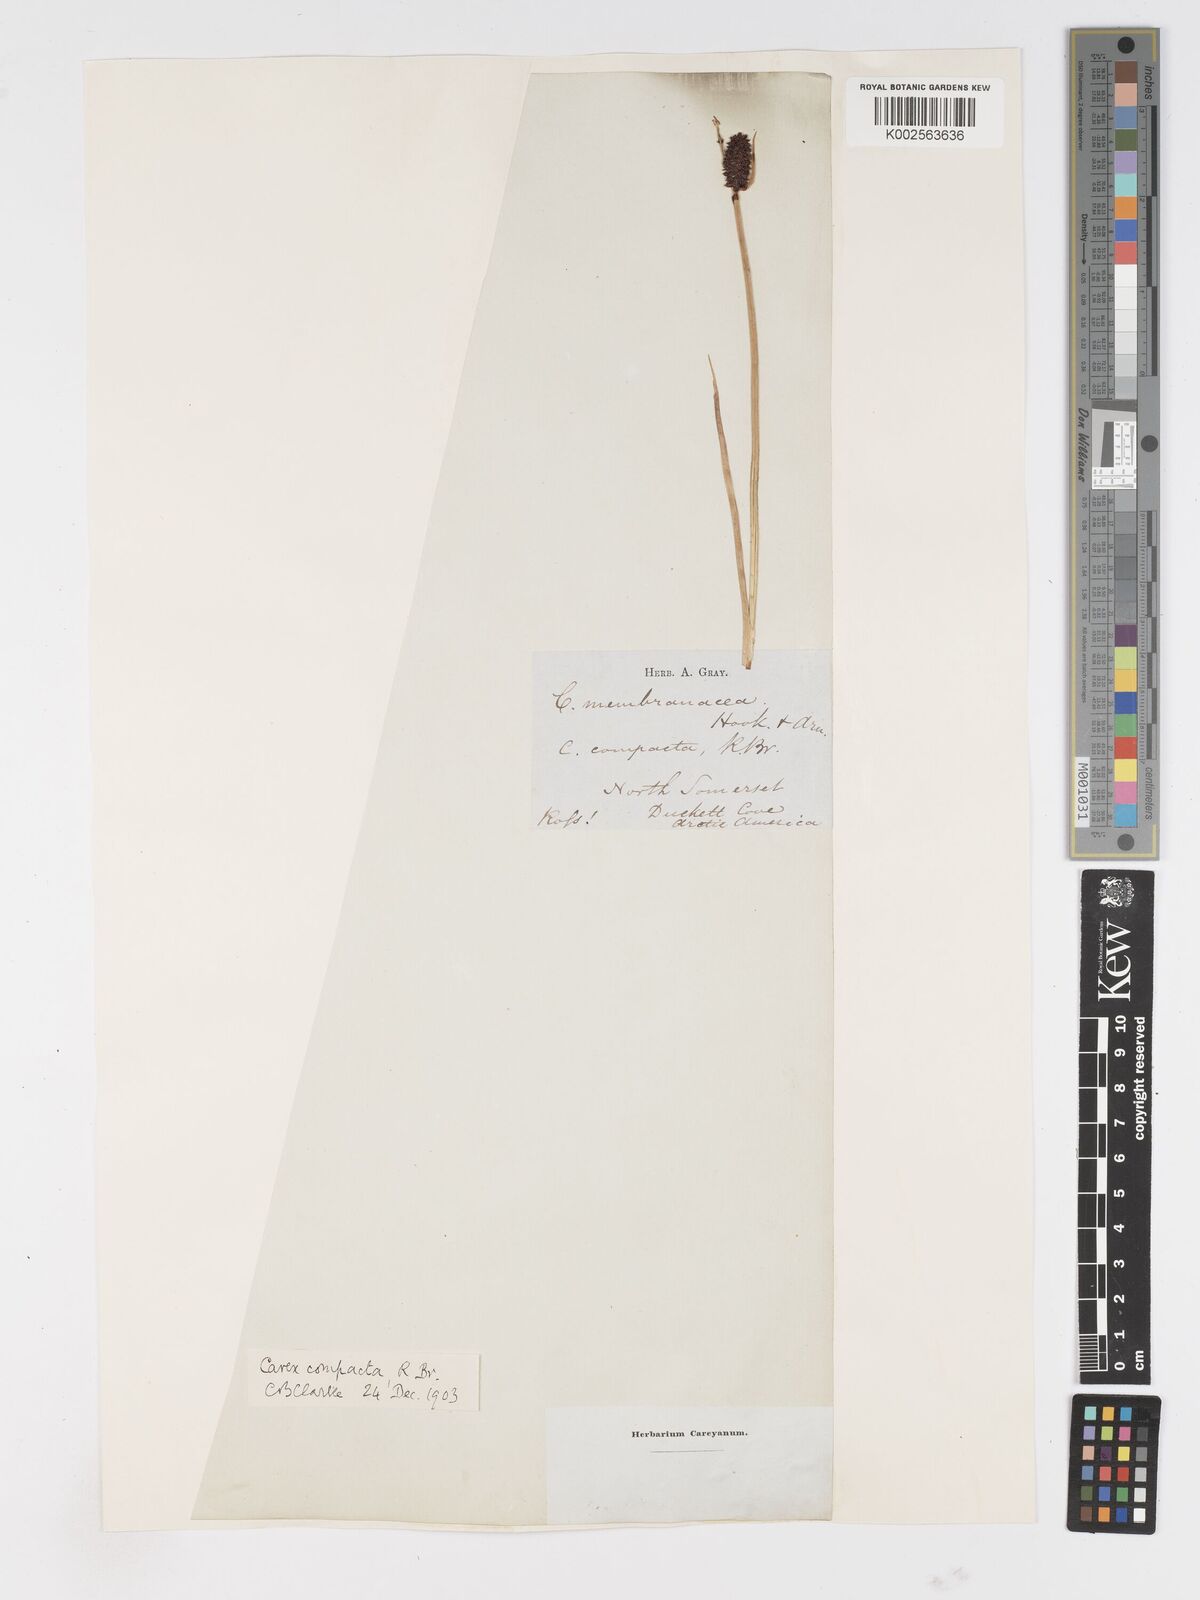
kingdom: Plantae
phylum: Tracheophyta
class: Liliopsida
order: Poales
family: Cyperaceae
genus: Carex
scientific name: Carex saxatilis
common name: Russet sedge
